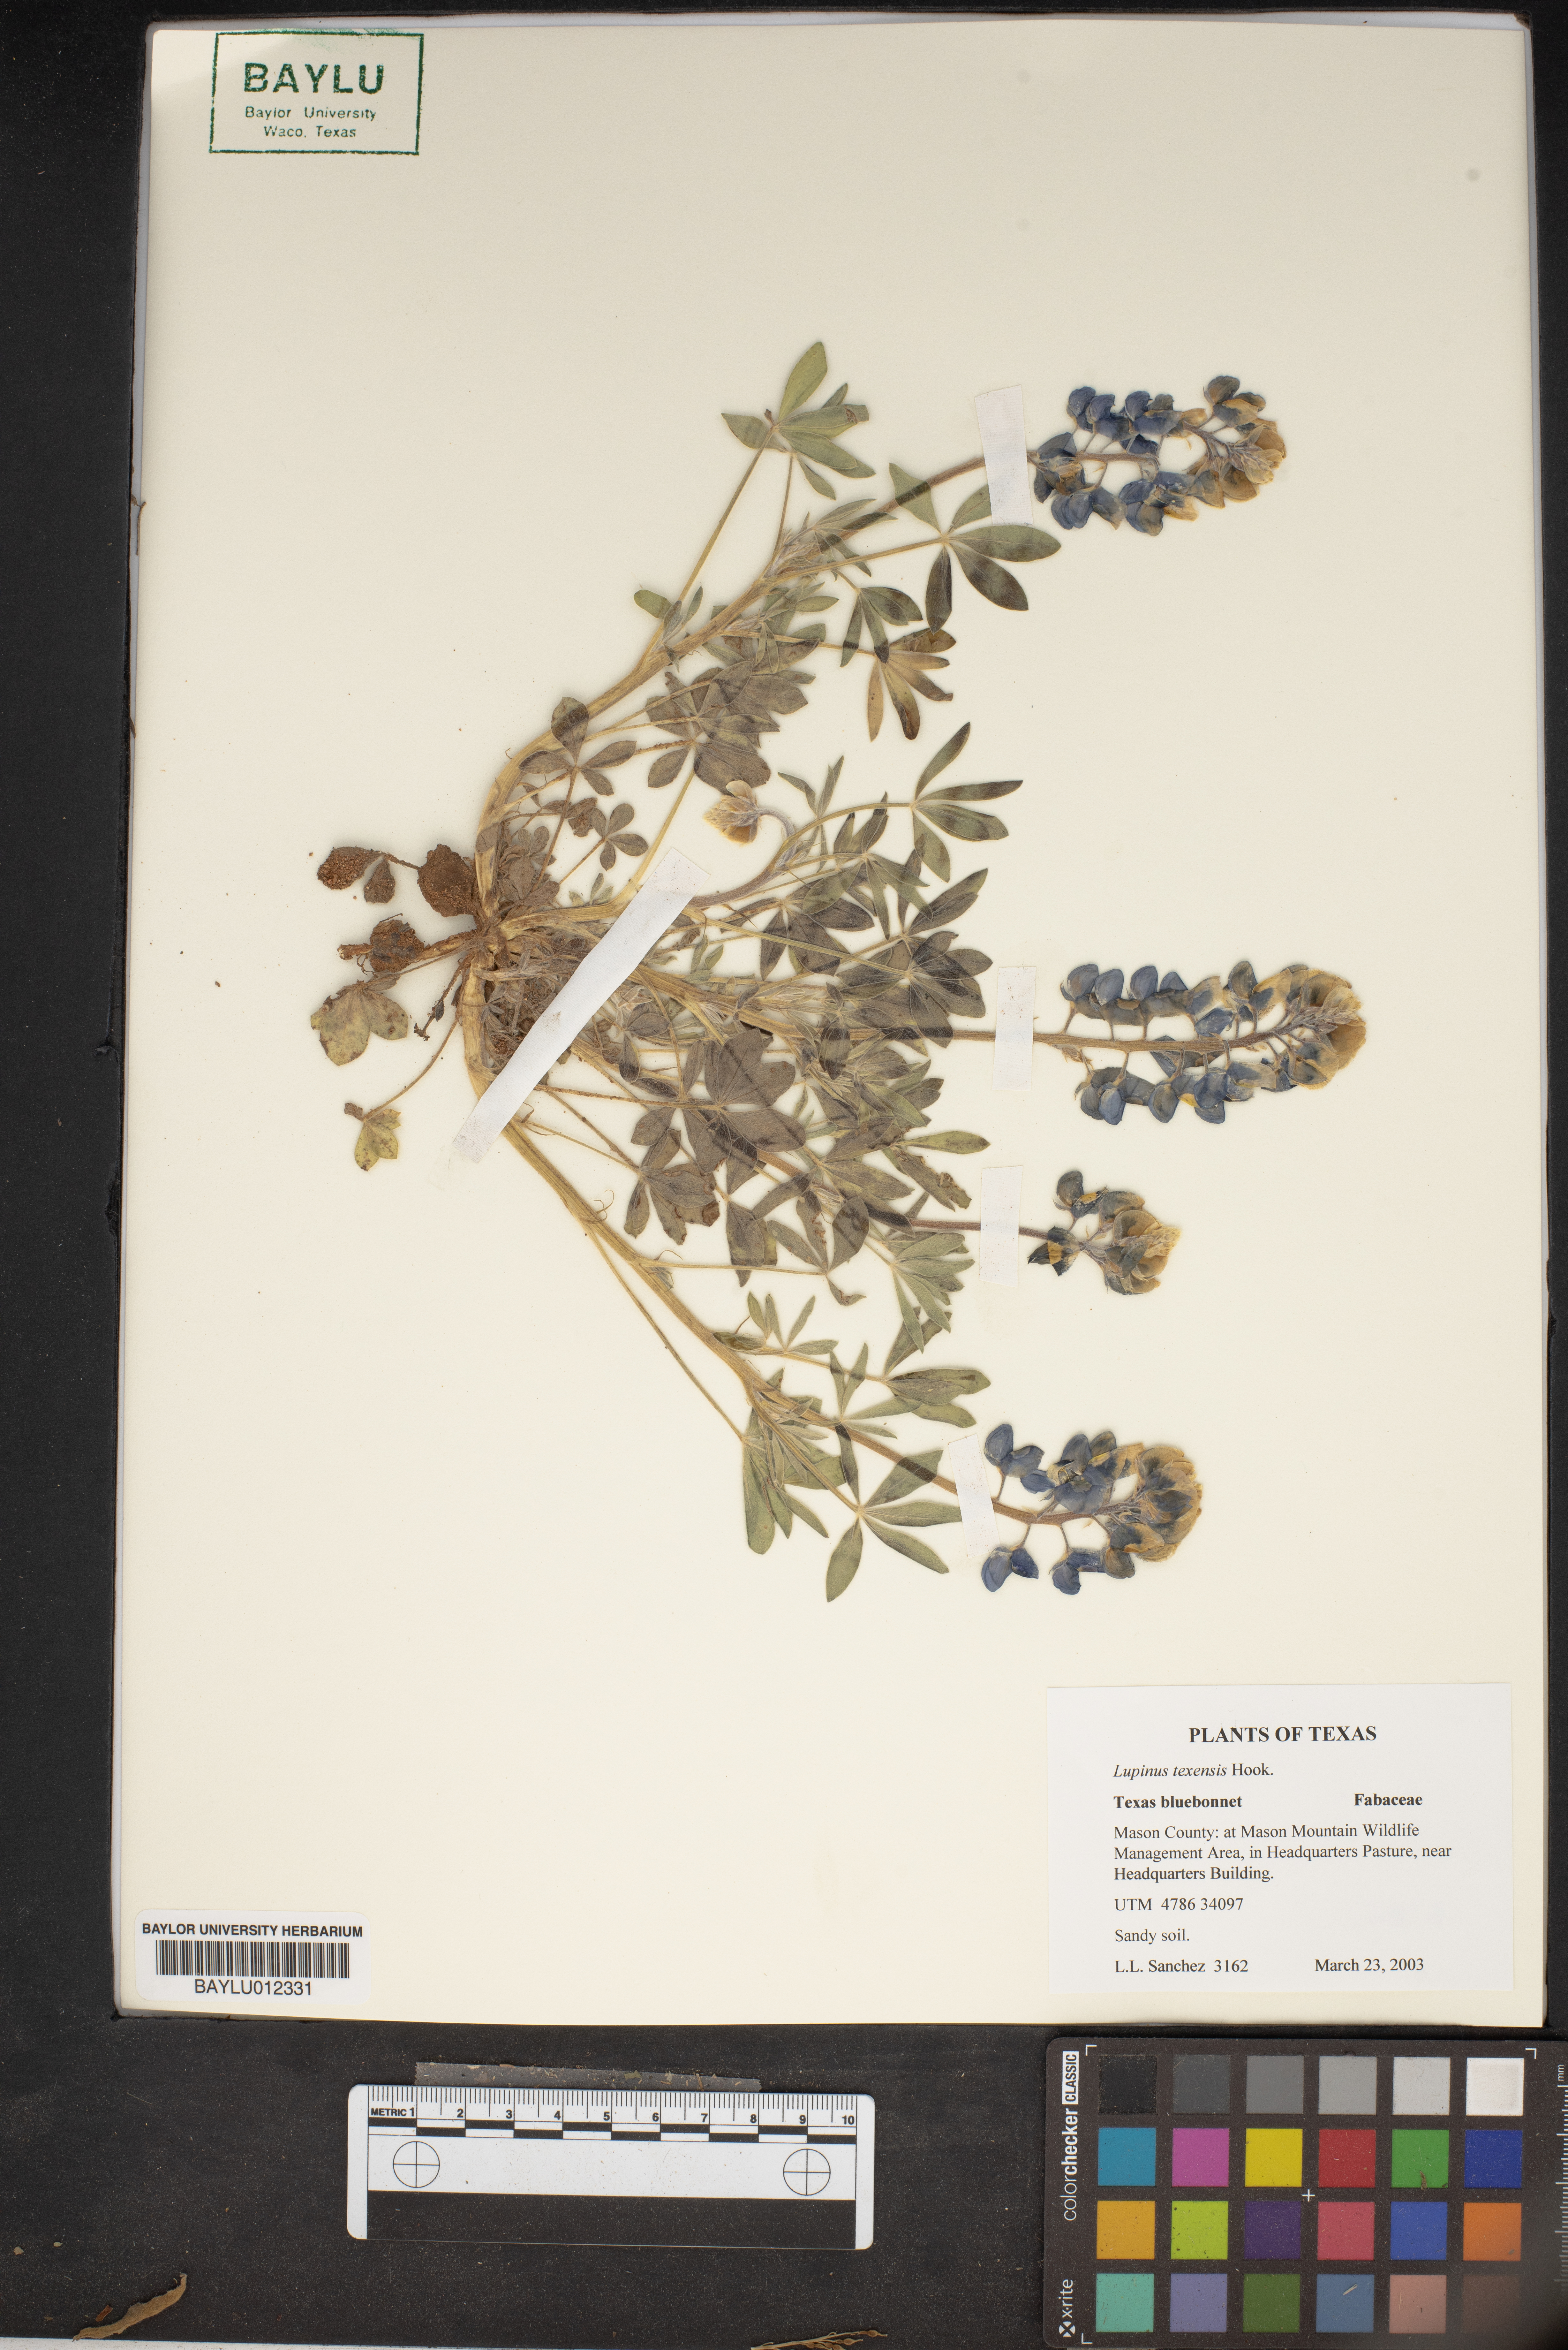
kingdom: Plantae
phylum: Tracheophyta
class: Magnoliopsida
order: Fabales
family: Fabaceae
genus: Lupinus
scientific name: Lupinus texensis
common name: Texas bluebonnet
